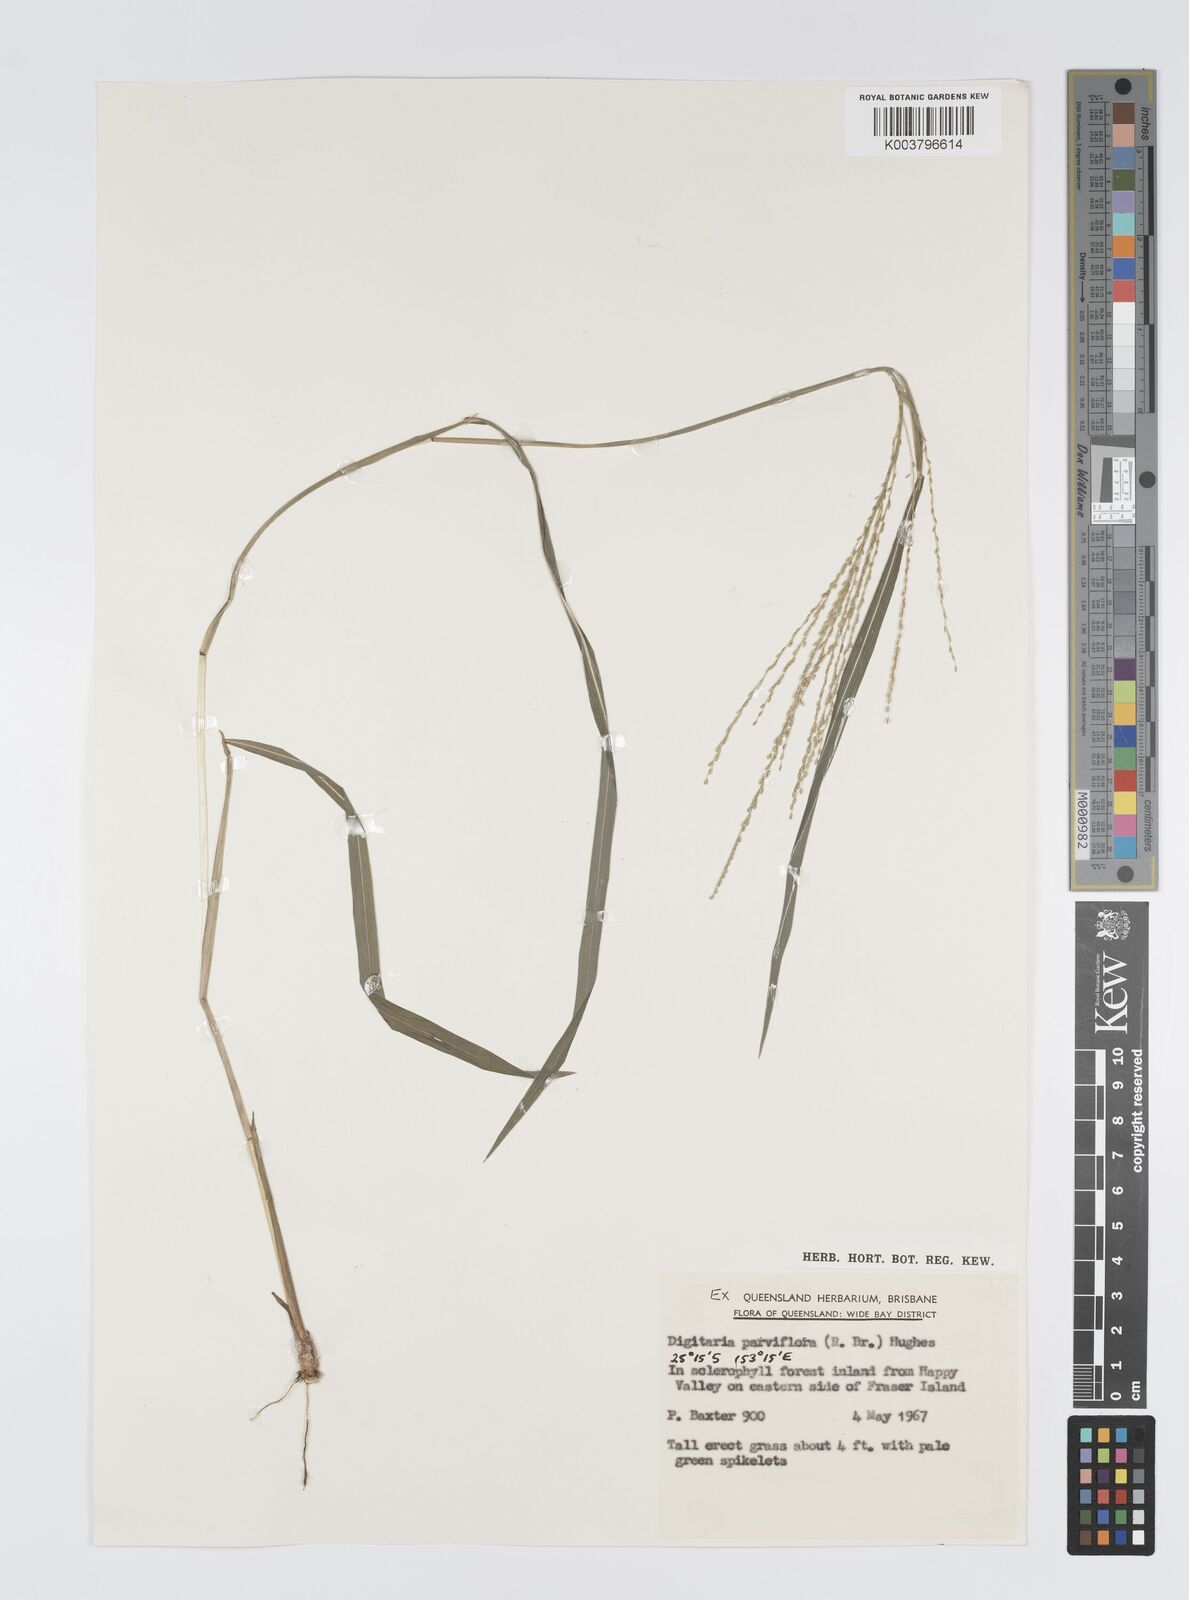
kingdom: Plantae
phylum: Tracheophyta
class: Liliopsida
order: Poales
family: Poaceae
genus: Digitaria
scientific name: Digitaria parviflora
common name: Small-flower finger grass
